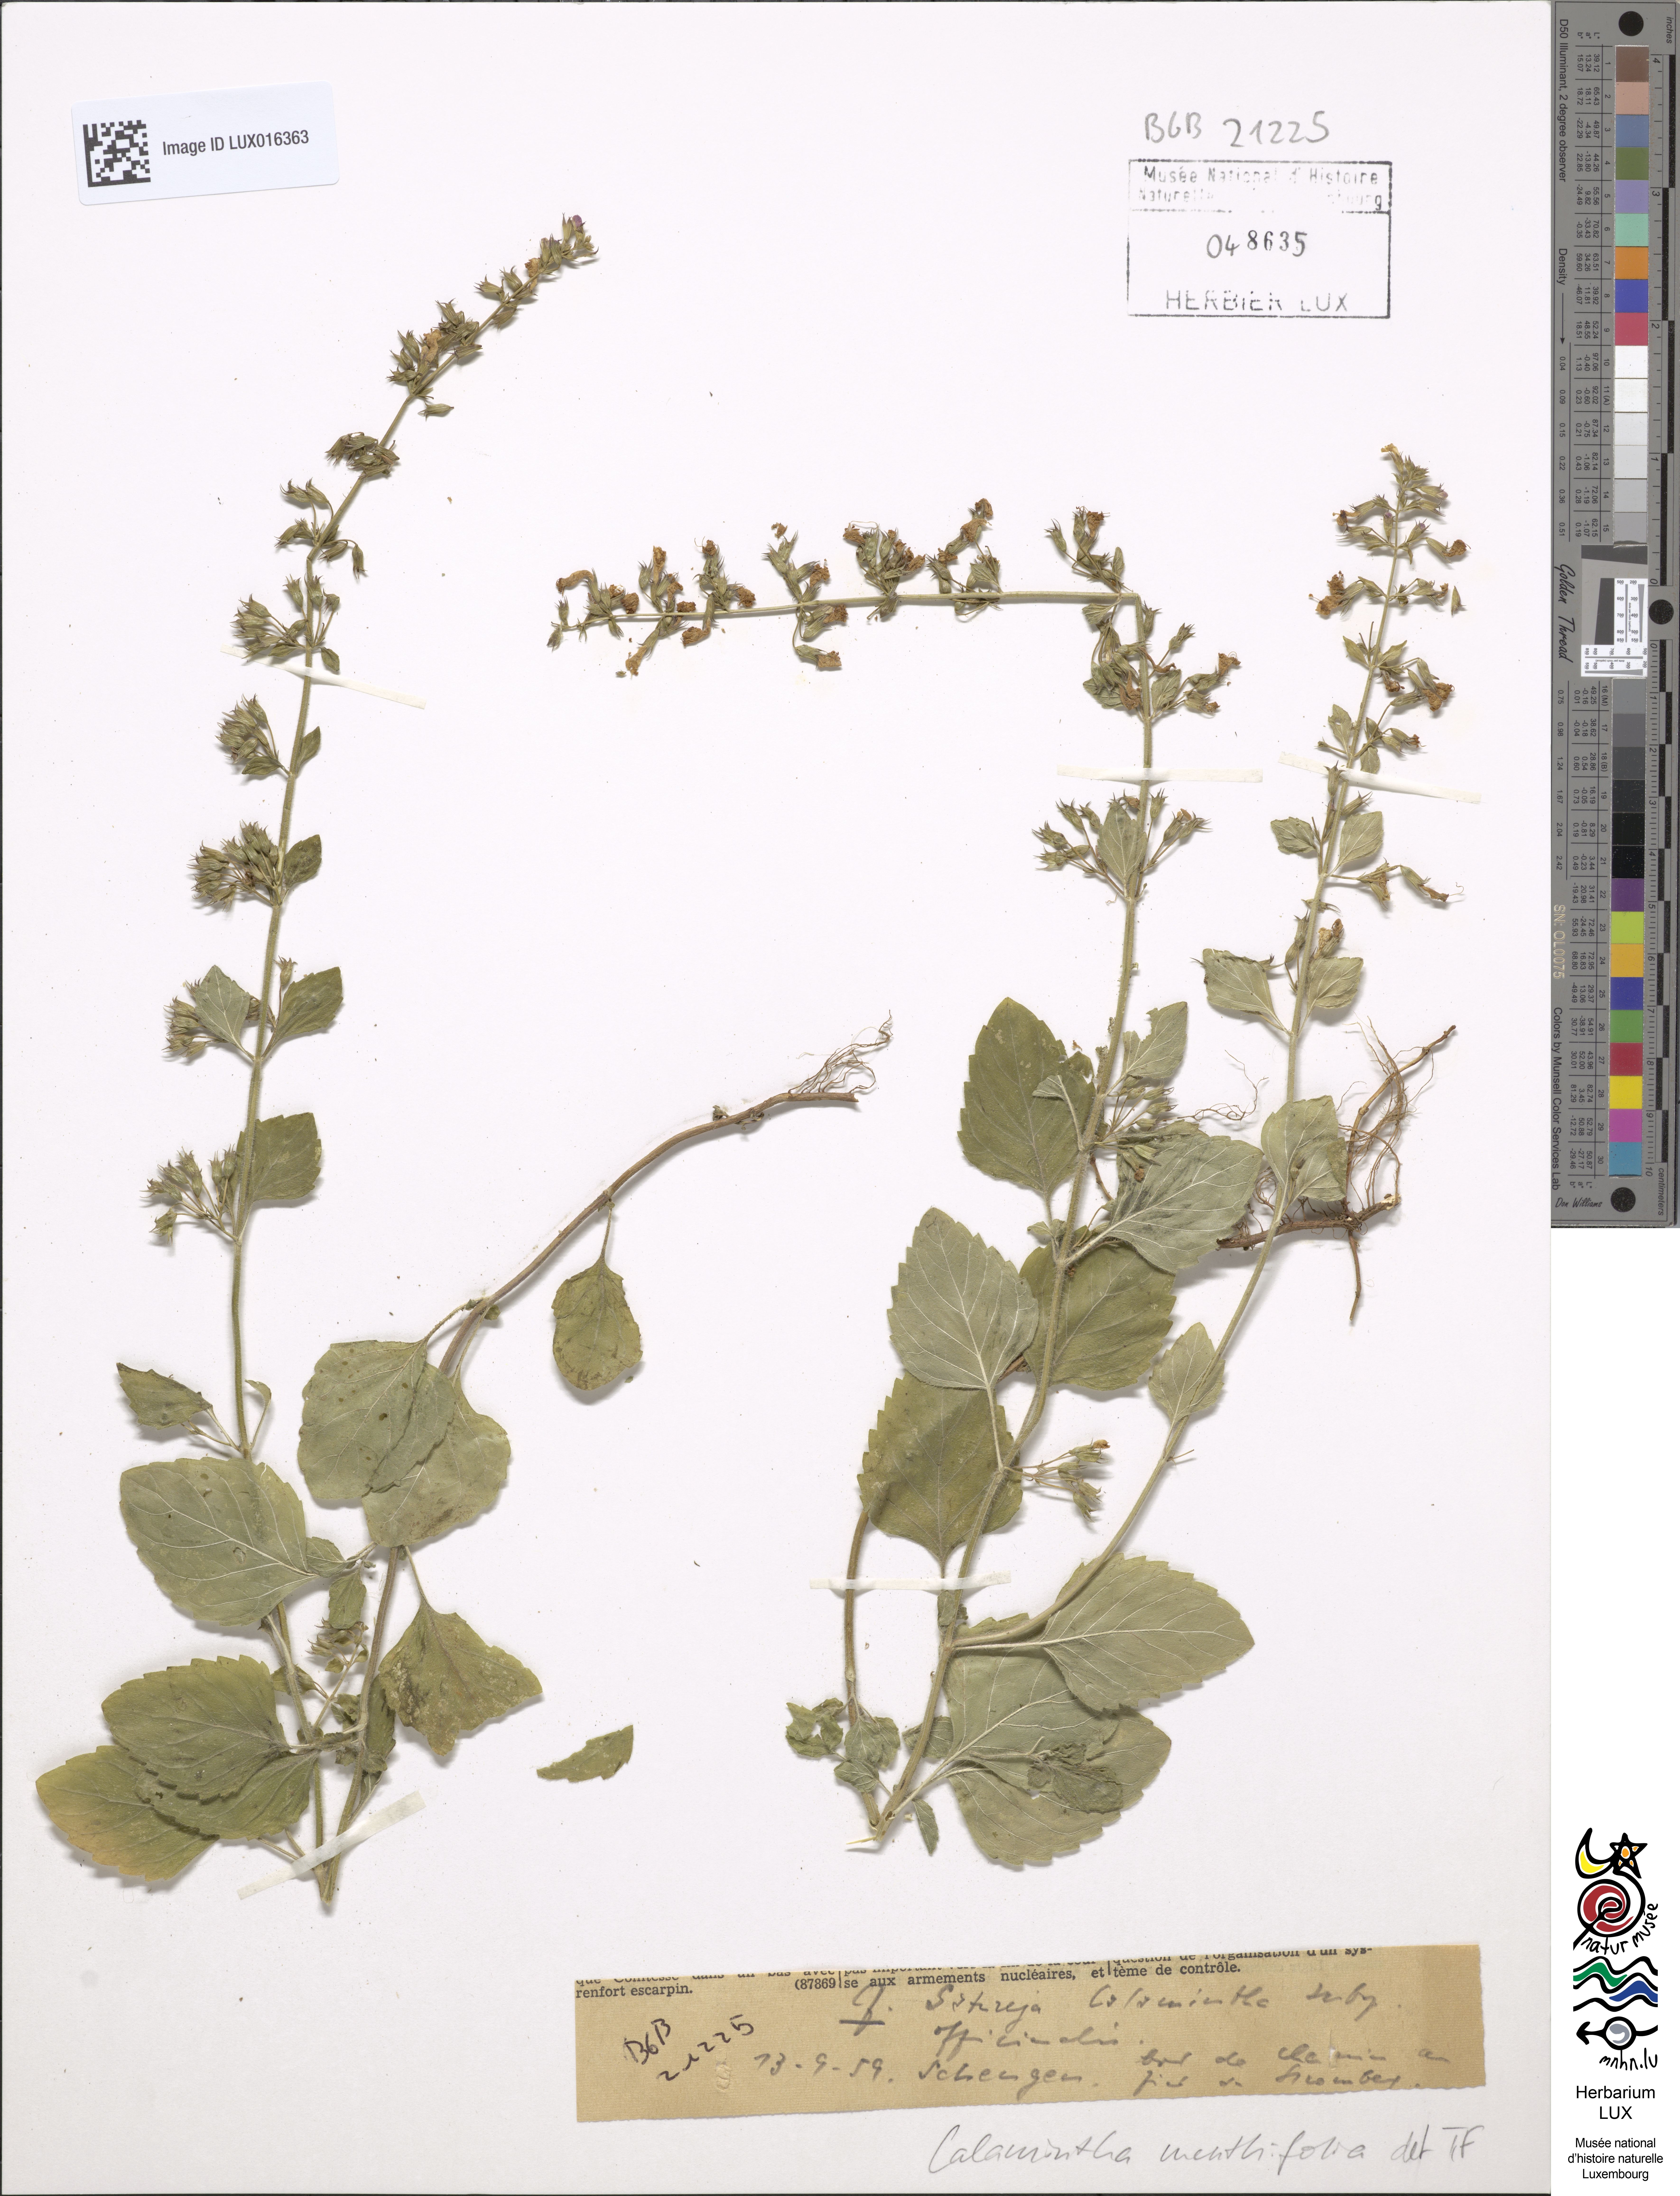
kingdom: Plantae
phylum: Tracheophyta
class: Magnoliopsida
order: Lamiales
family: Lamiaceae
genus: Clinopodium
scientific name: Clinopodium menthifolium
